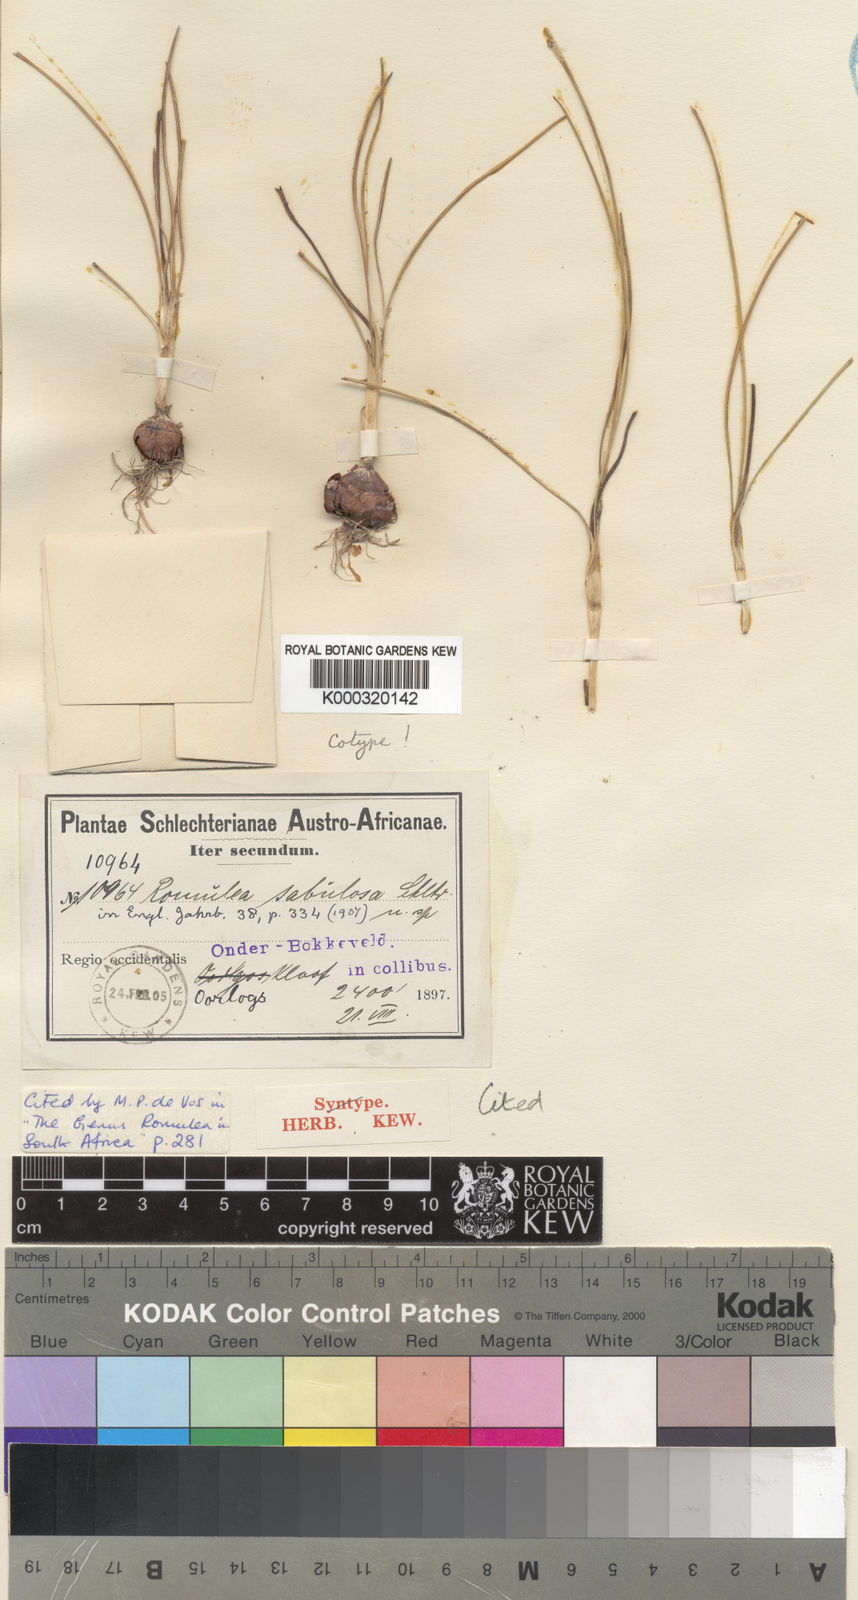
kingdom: Plantae
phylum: Tracheophyta
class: Liliopsida
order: Asparagales
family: Iridaceae
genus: Romulea
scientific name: Romulea
